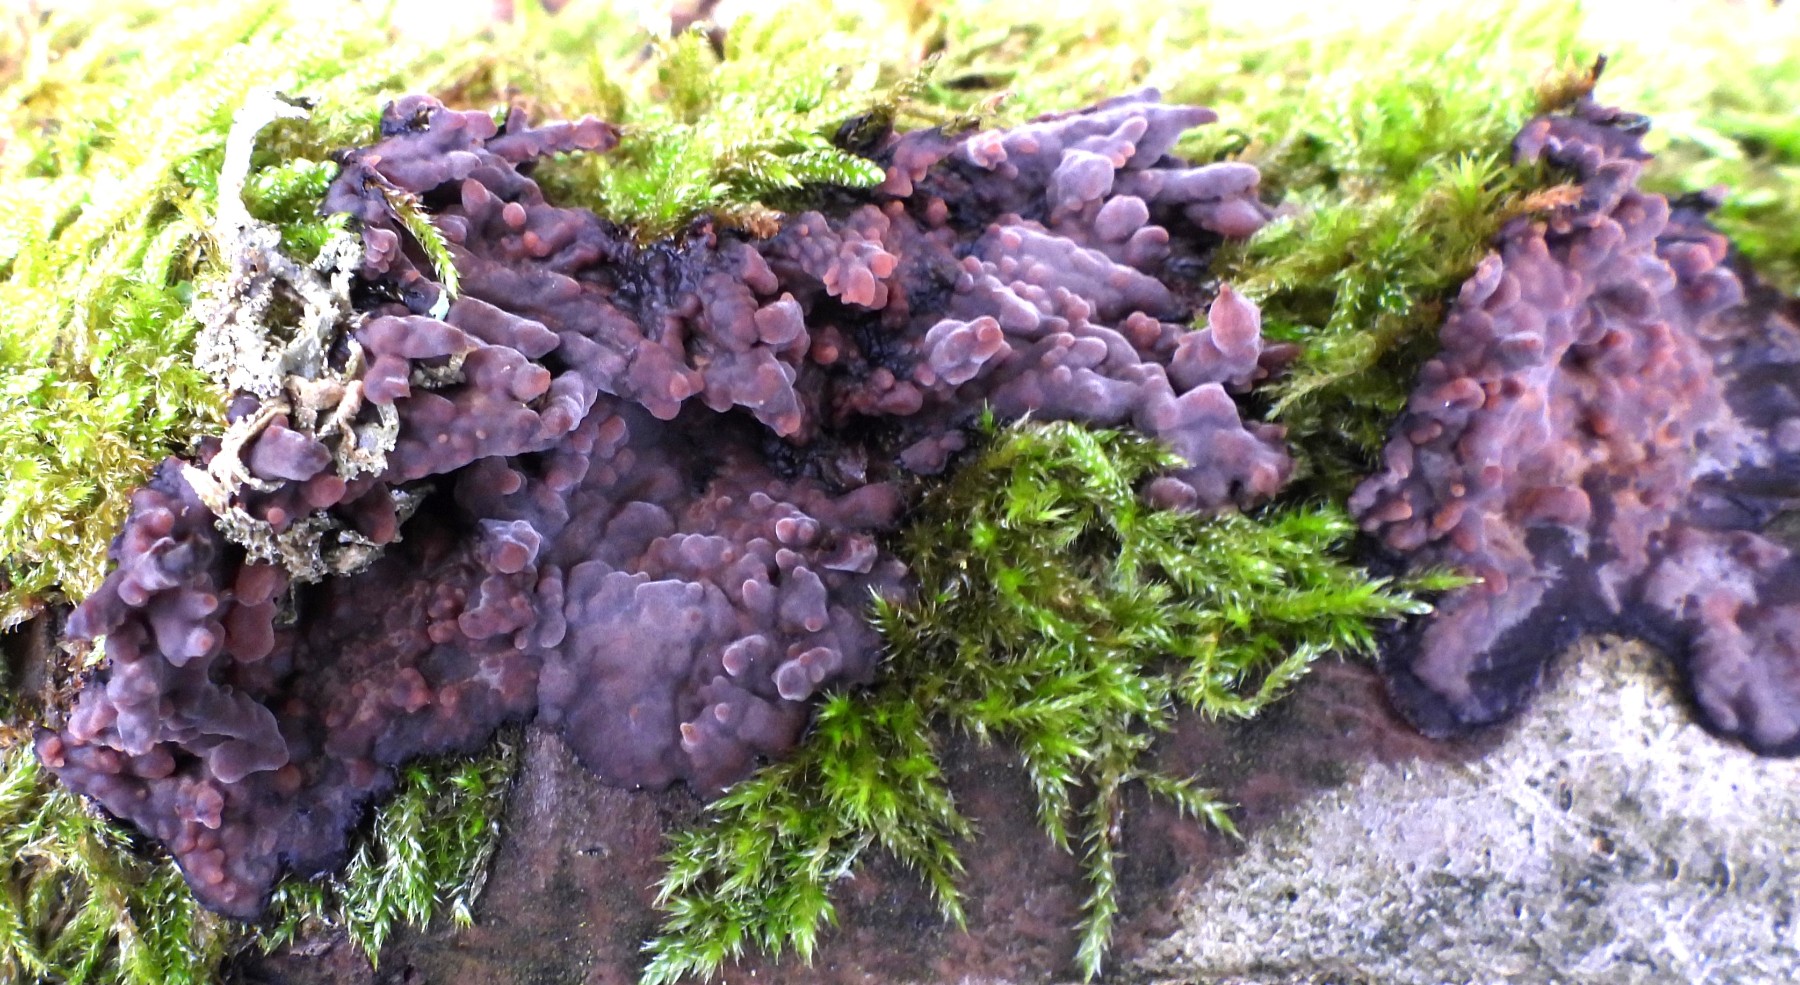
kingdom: Fungi
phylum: Basidiomycota
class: Agaricomycetes
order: Russulales
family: Peniophoraceae
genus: Peniophora
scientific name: Peniophora quercina
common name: ege-voksskind
